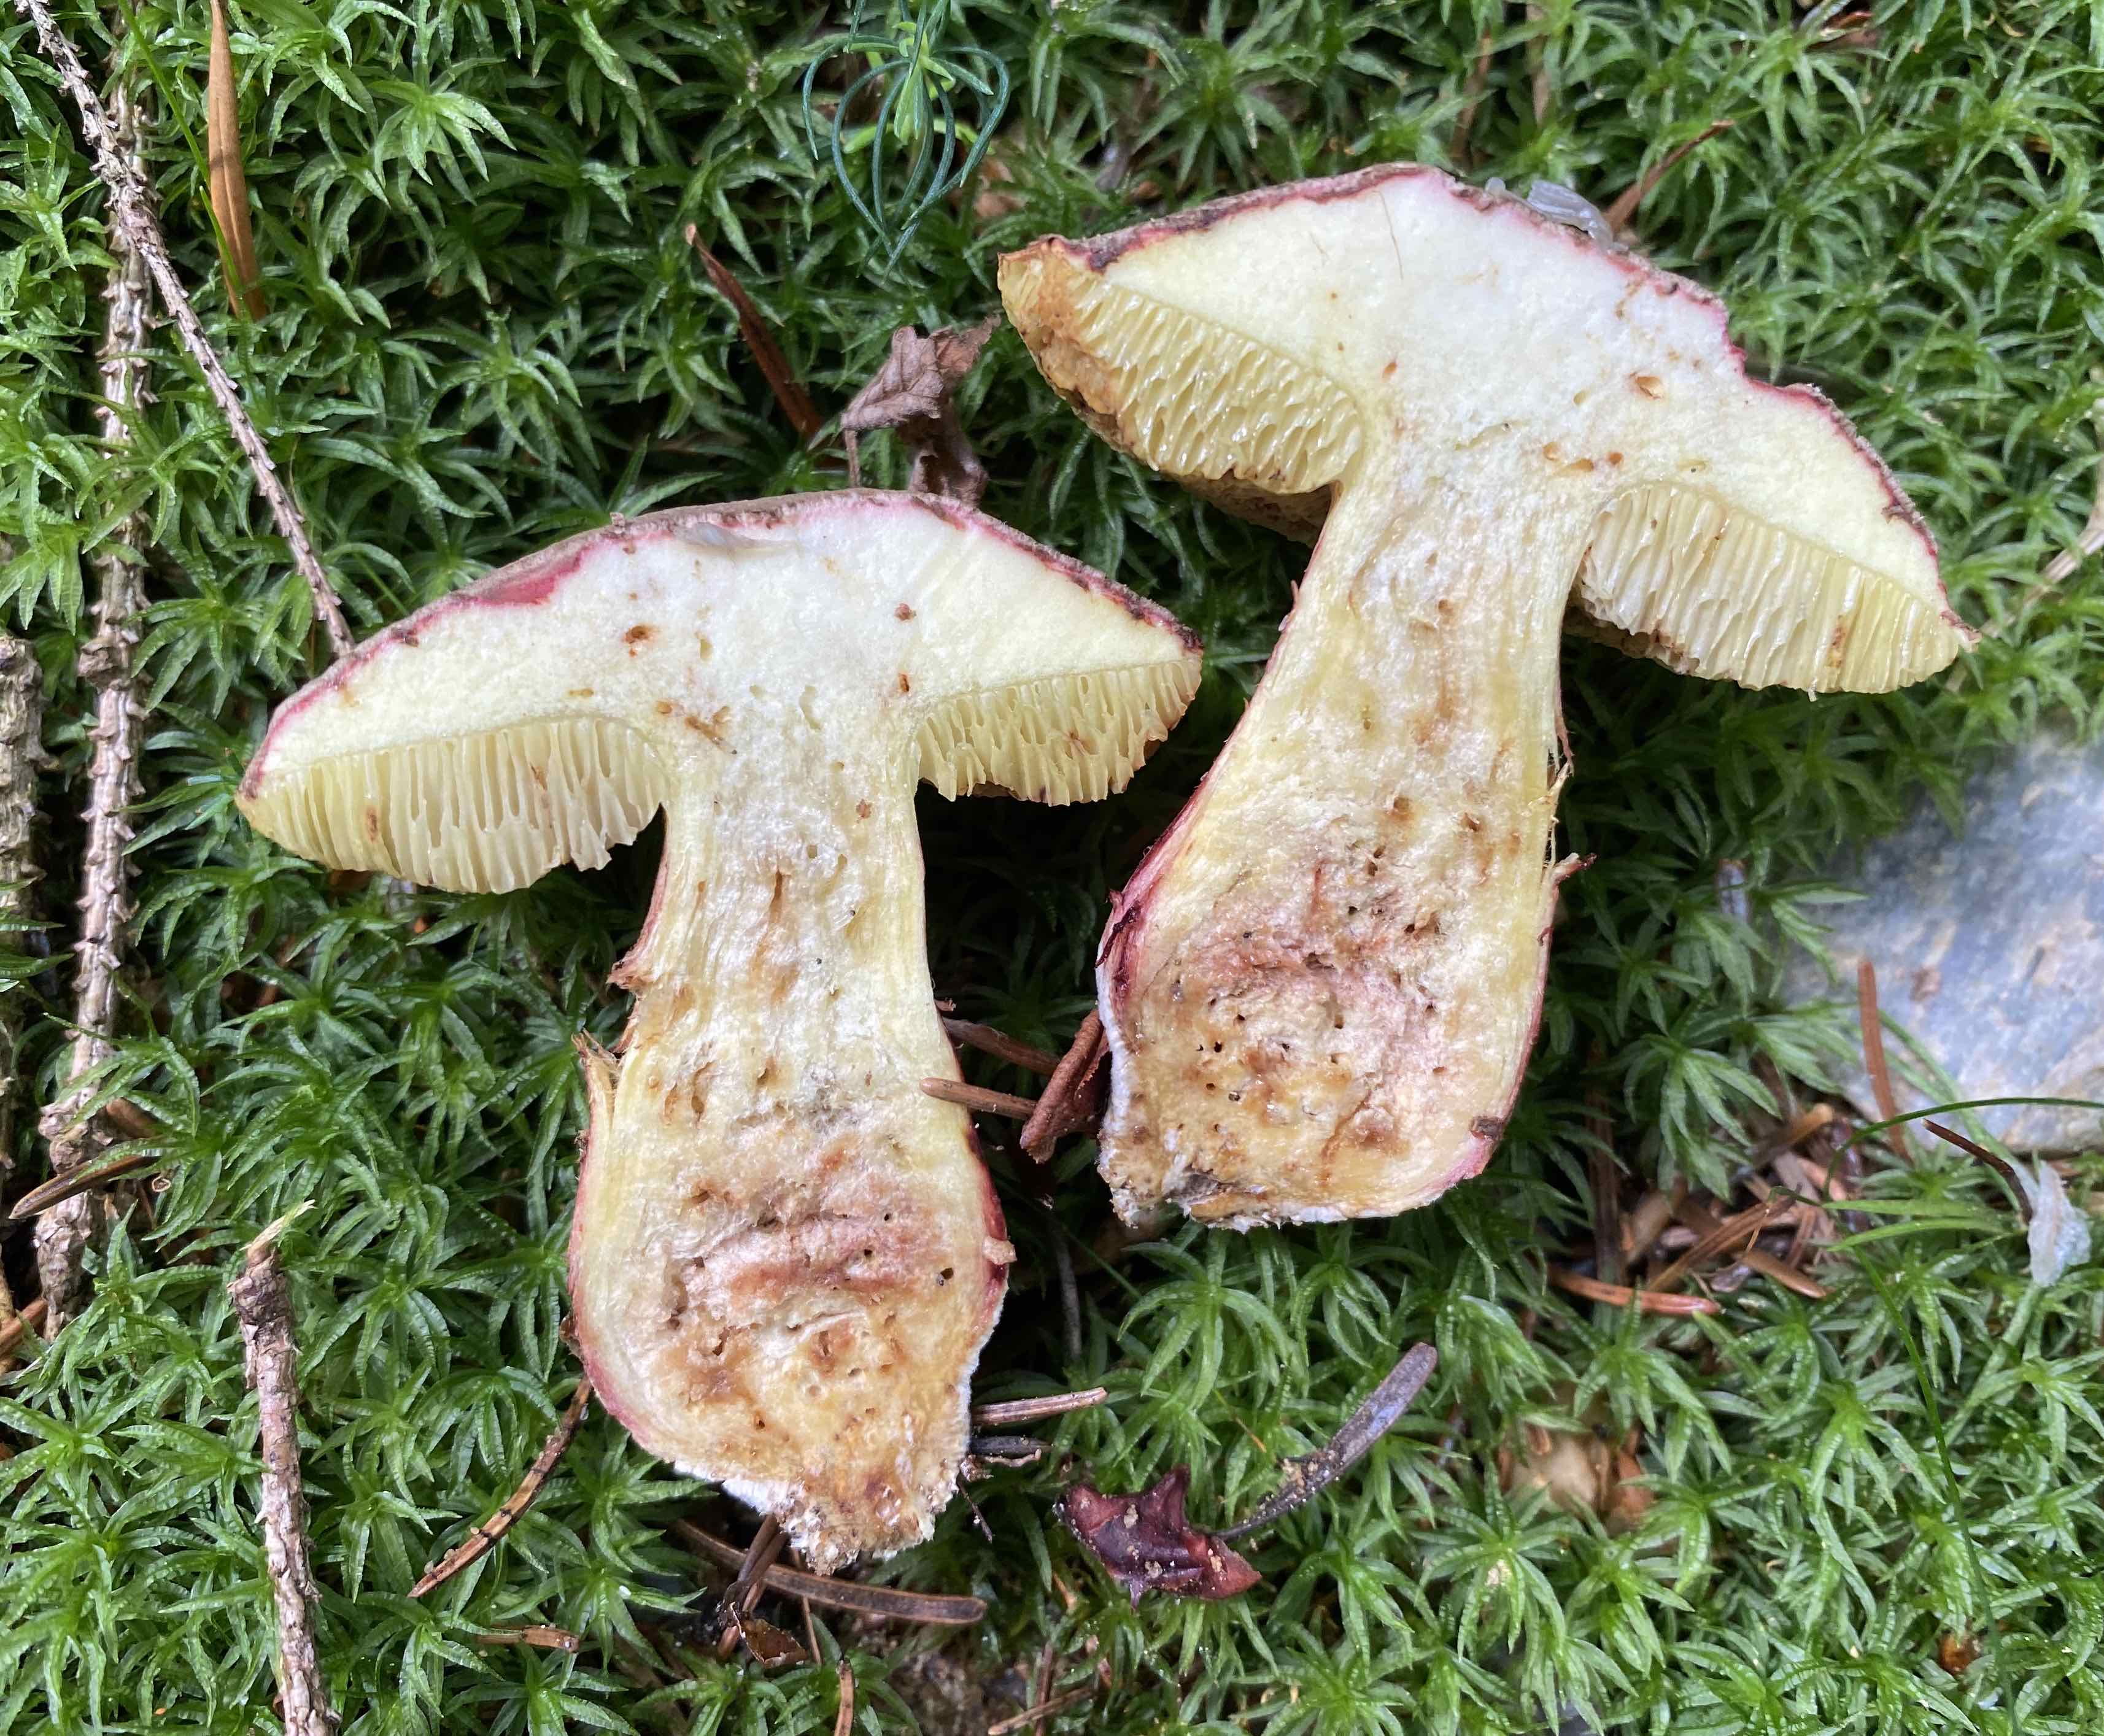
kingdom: Fungi
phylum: Basidiomycota
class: Agaricomycetes
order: Boletales
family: Boletaceae
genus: Xerocomellus
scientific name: Xerocomellus chrysenteron
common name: rødsprukken rørhat
